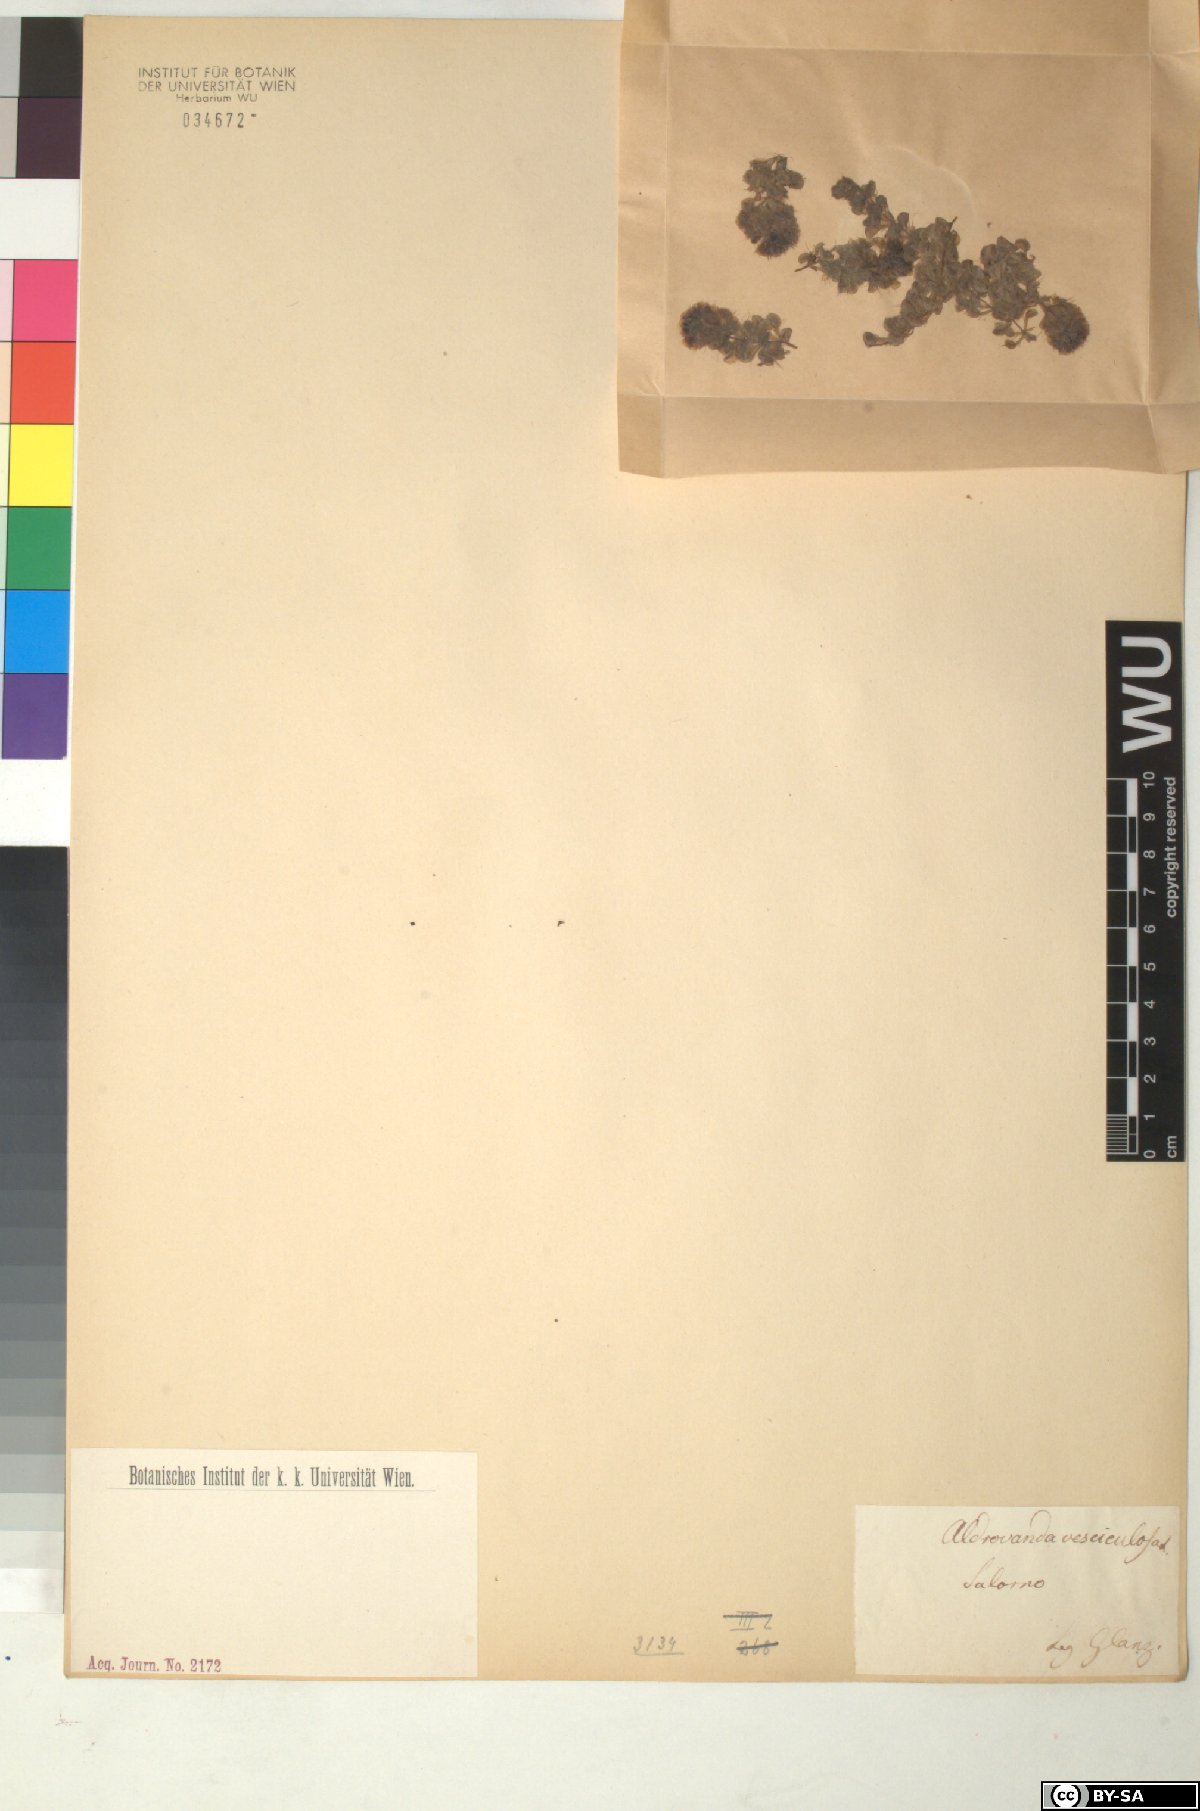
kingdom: Plantae
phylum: Tracheophyta
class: Magnoliopsida
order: Caryophyllales
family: Droseraceae
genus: Aldrovanda
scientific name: Aldrovanda vesiculosa
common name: Waterwheel plant
